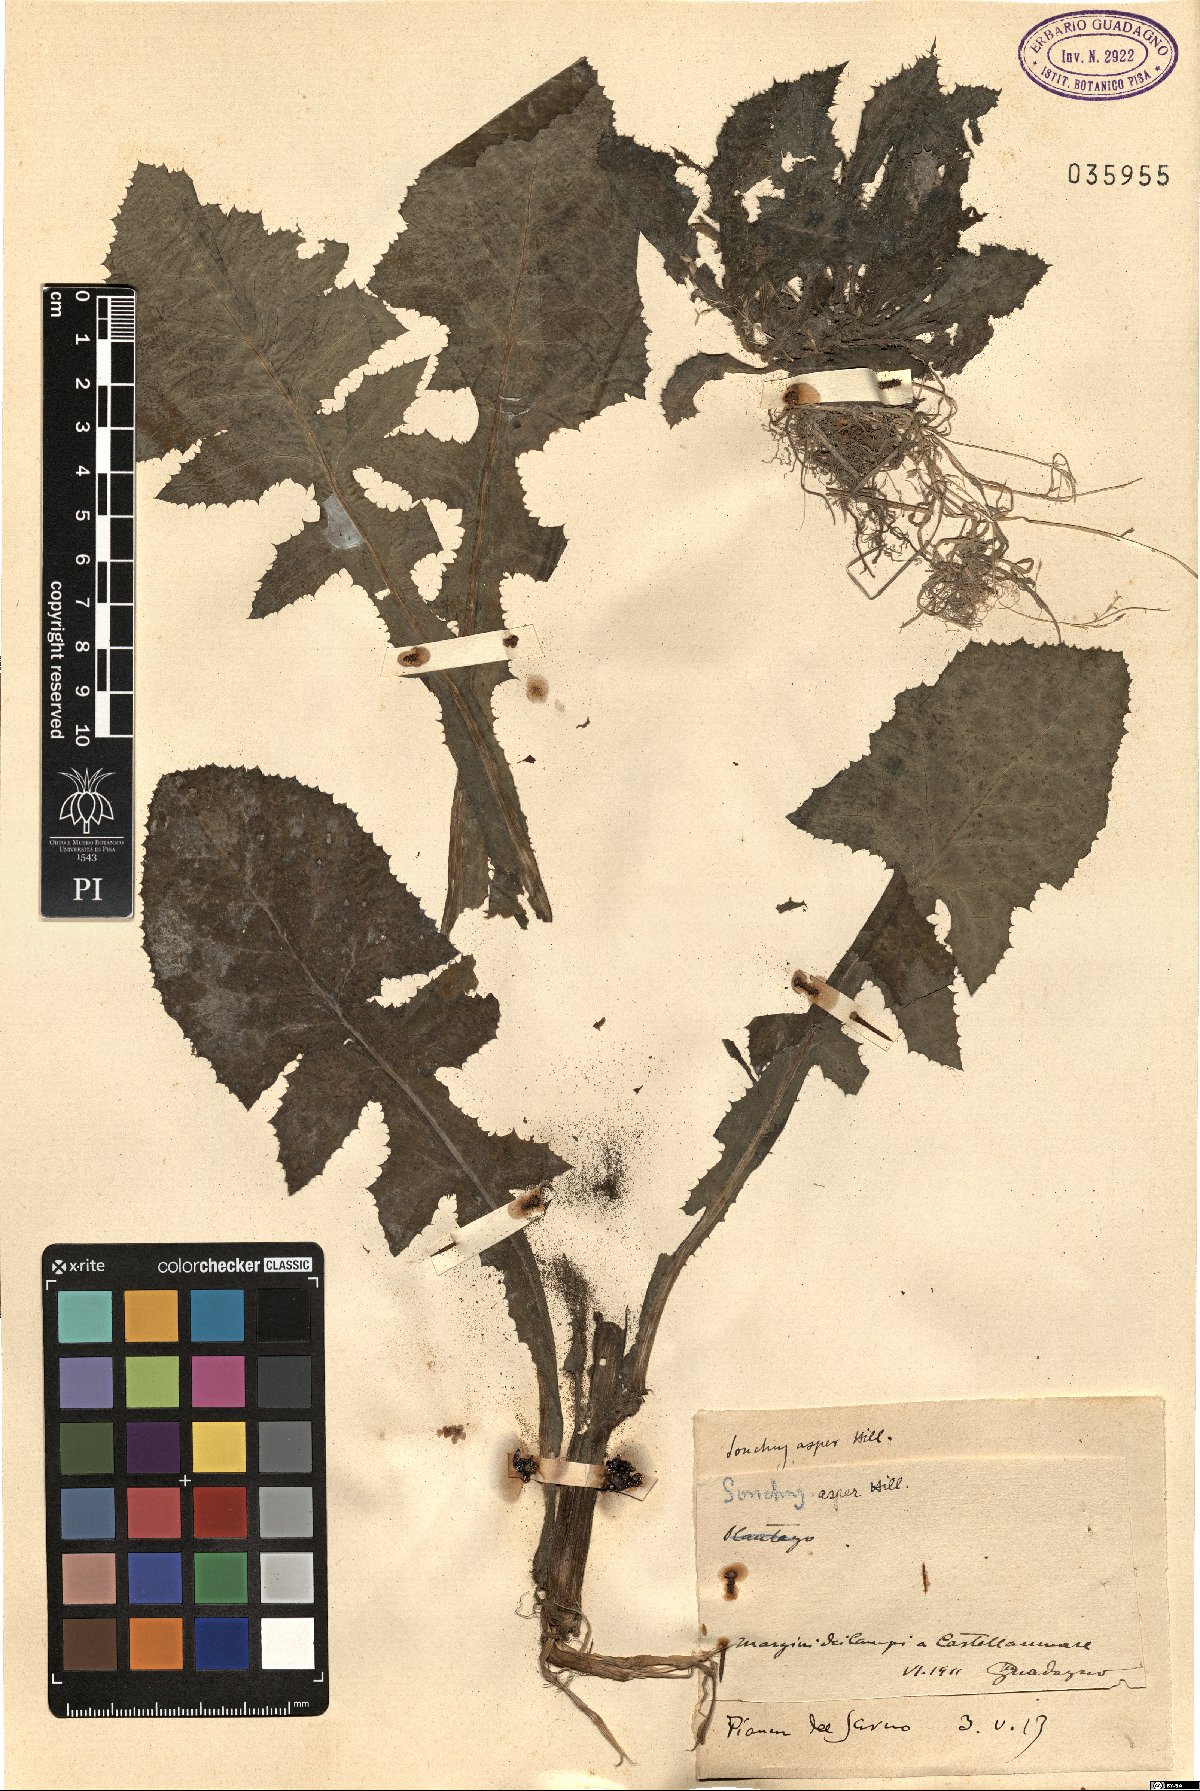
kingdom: Plantae
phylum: Tracheophyta
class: Magnoliopsida
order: Asterales
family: Asteraceae
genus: Sonchus
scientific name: Sonchus asper
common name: Prickly sow-thistle
